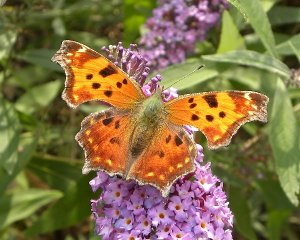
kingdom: Animalia
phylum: Arthropoda
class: Insecta
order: Lepidoptera
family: Nymphalidae
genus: Polygonia
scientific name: Polygonia comma
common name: Eastern Comma
